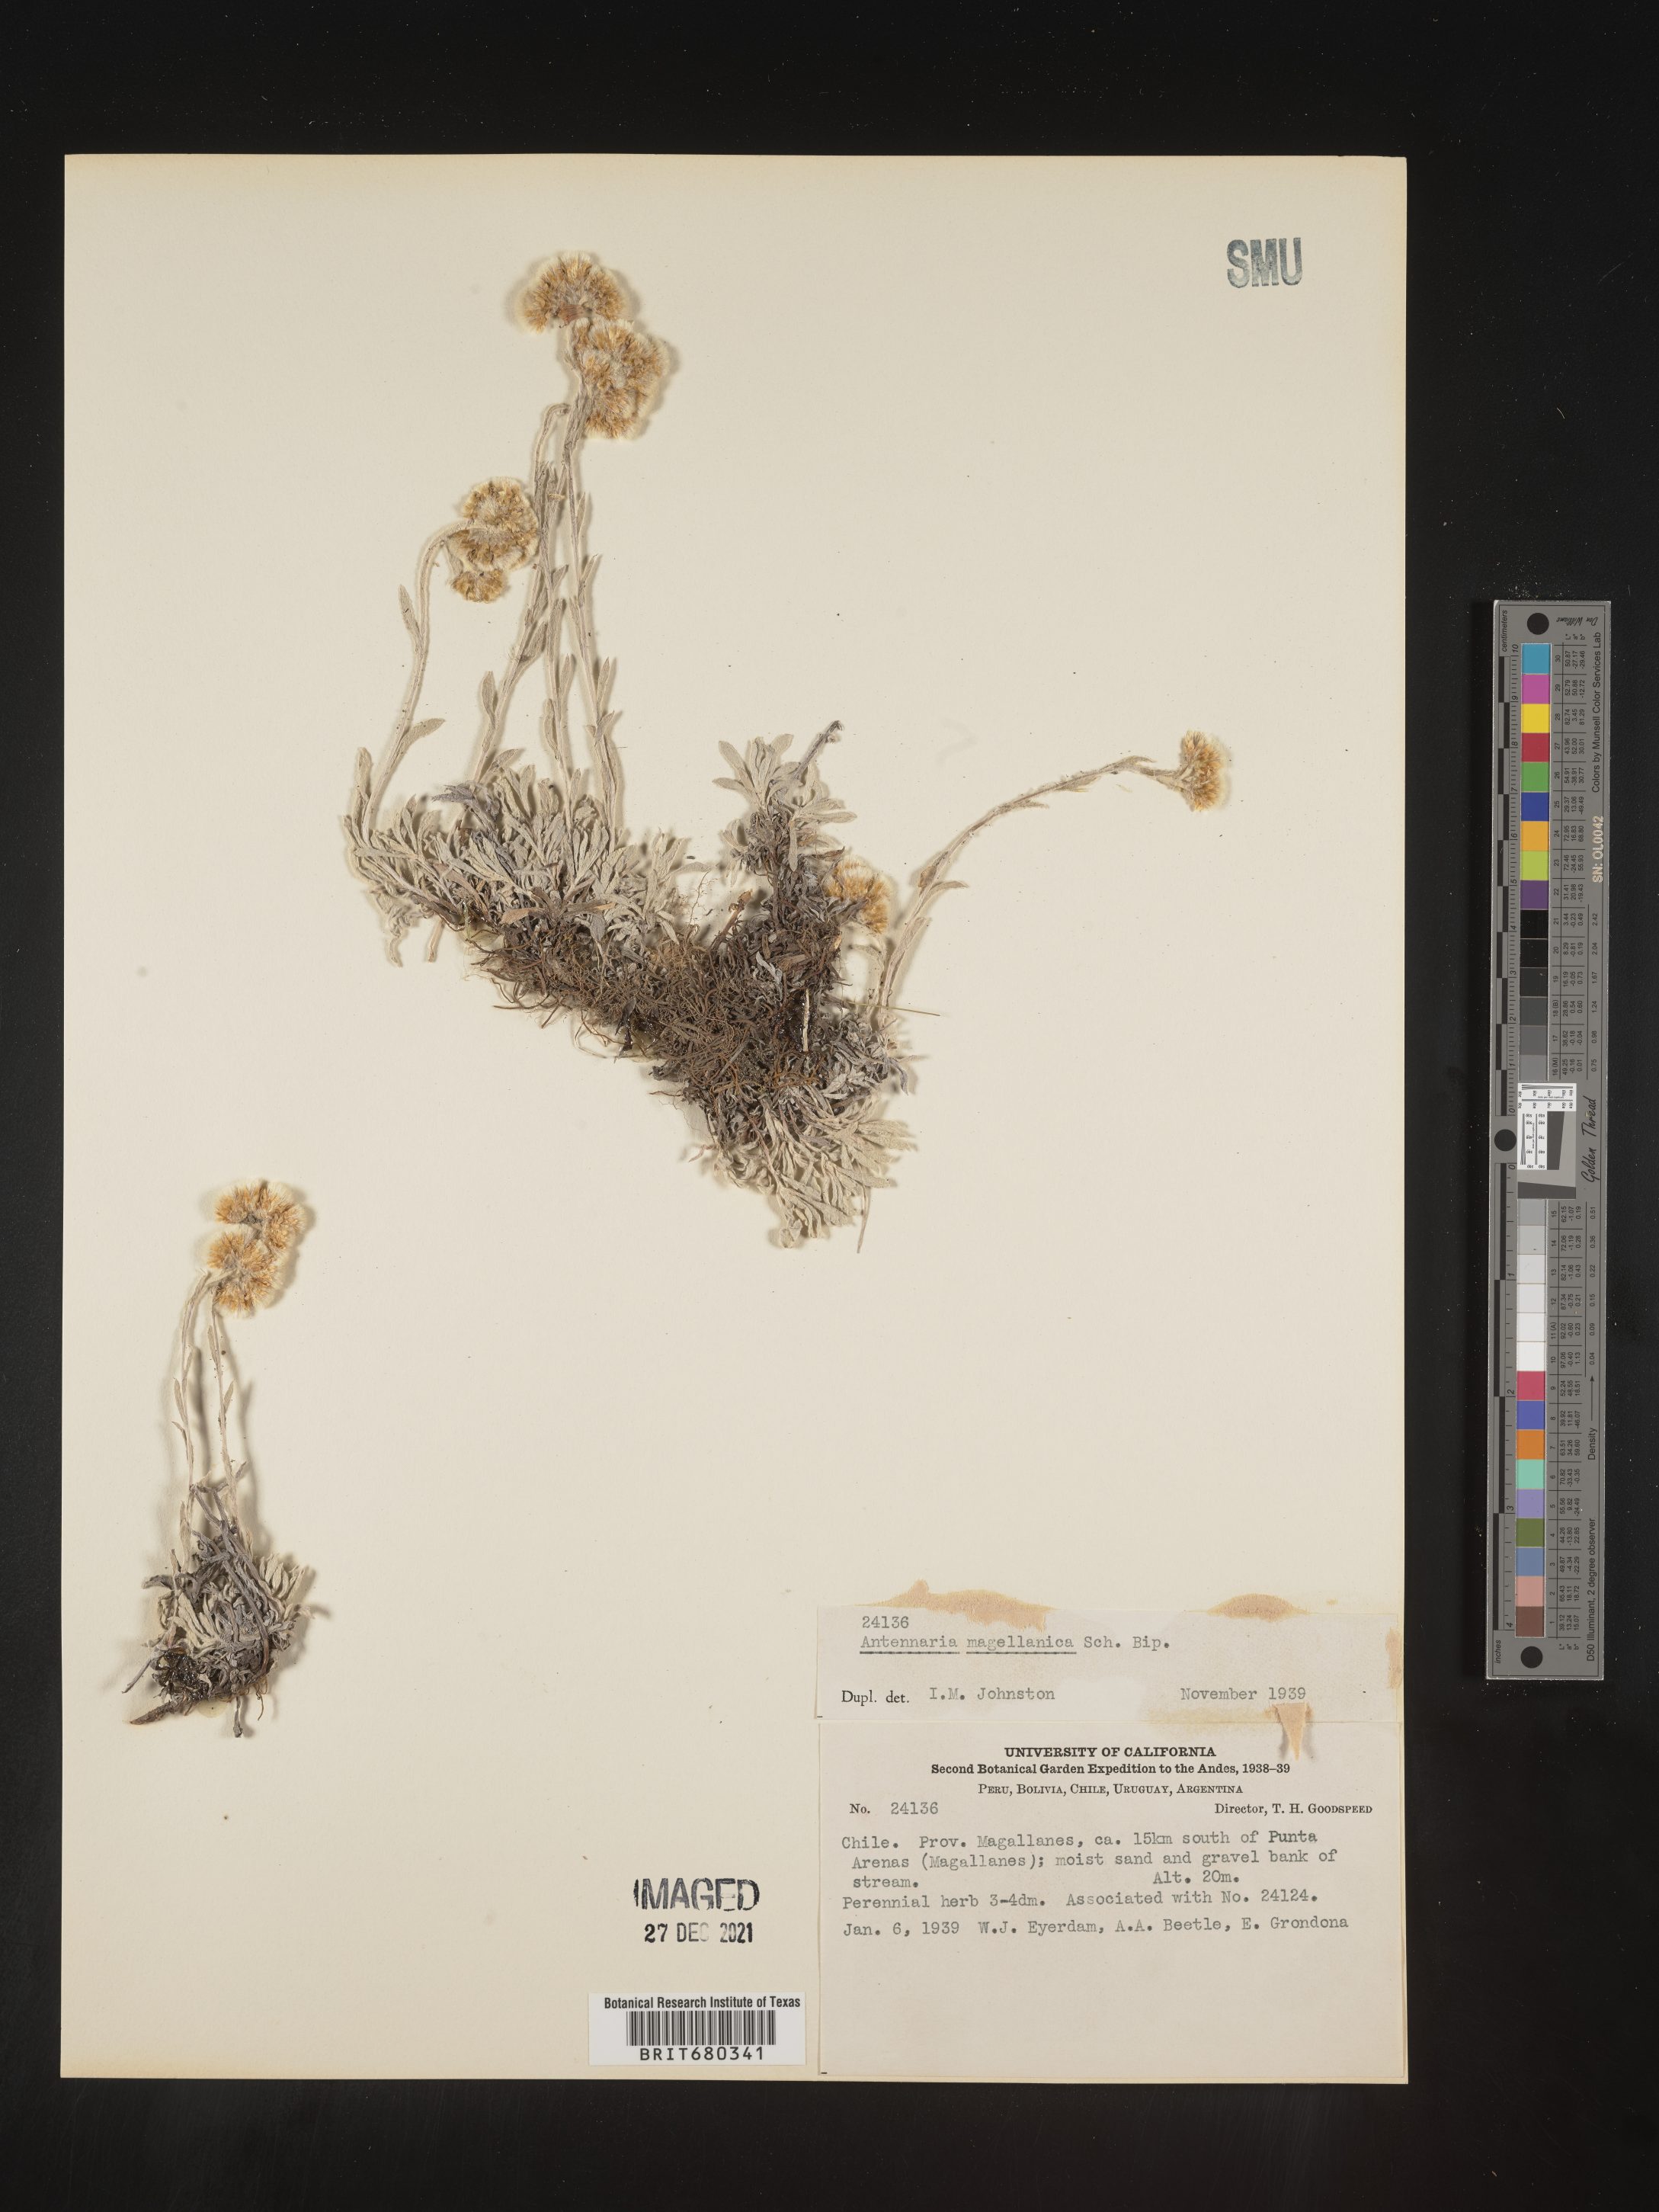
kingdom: Plantae
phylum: Tracheophyta
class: Magnoliopsida
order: Asterales
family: Asteraceae
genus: Antennaria
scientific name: Antennaria chilensis
